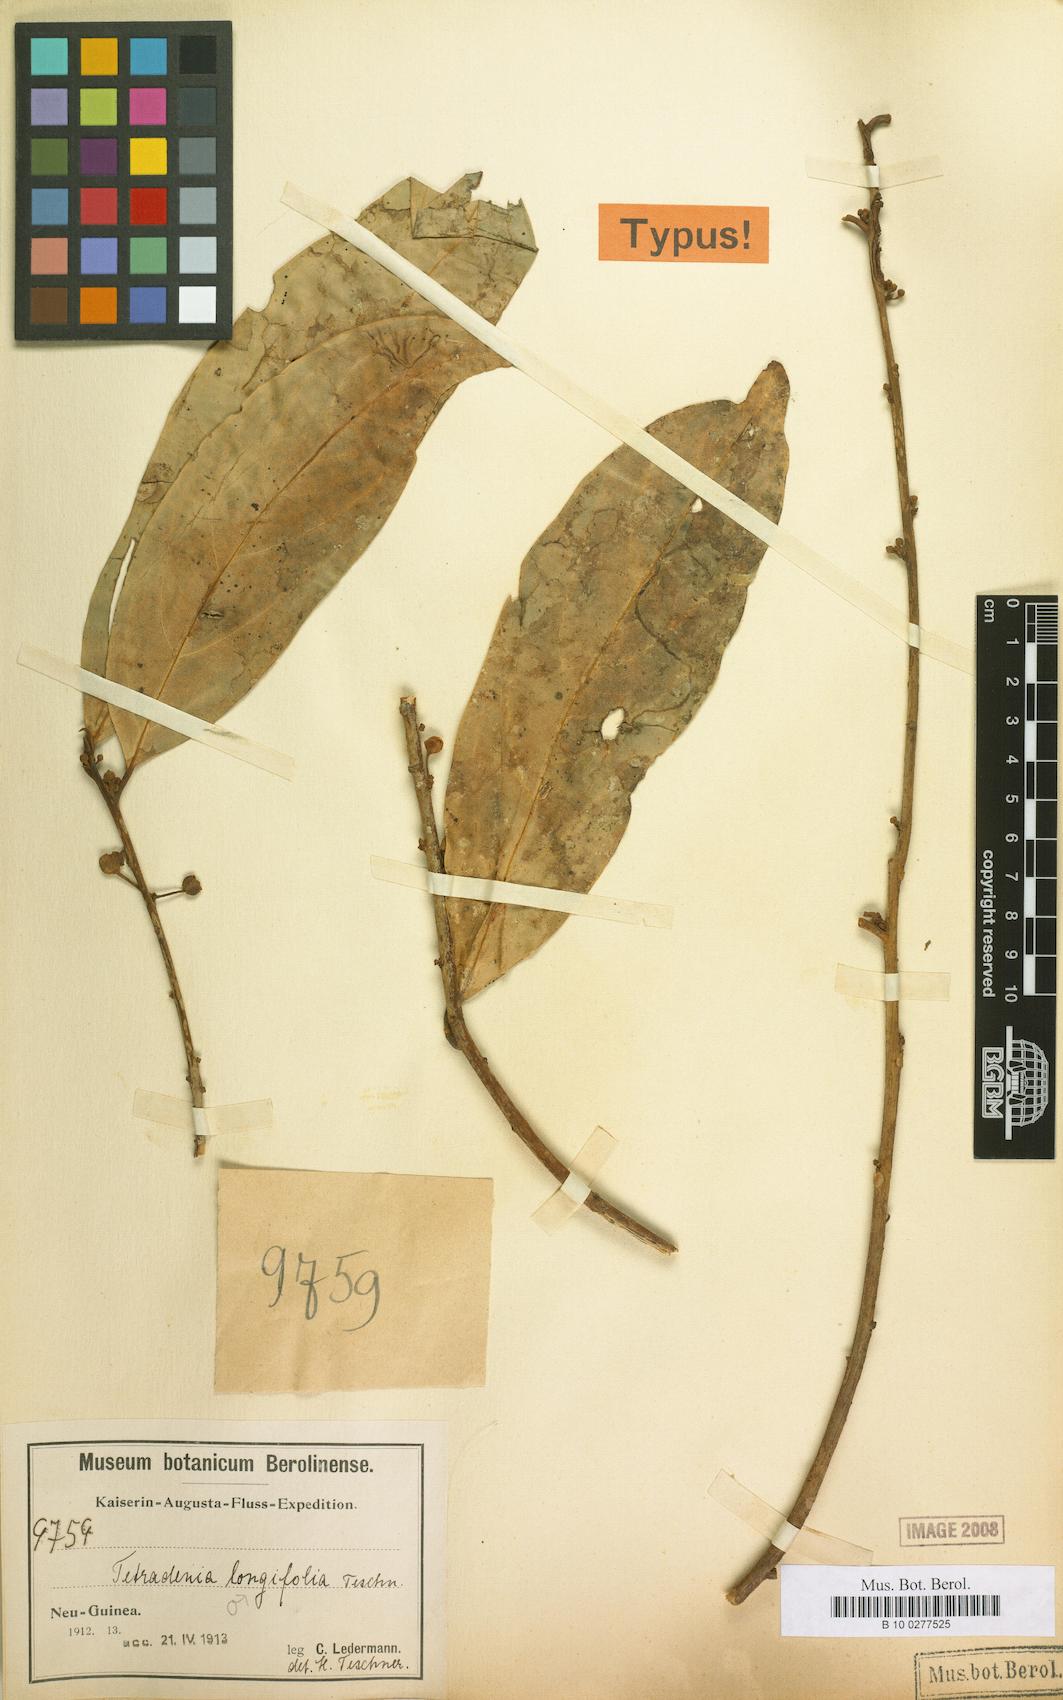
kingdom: Plantae
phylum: Tracheophyta
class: Magnoliopsida
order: Laurales
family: Lauraceae
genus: Neolitsea
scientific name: Neolitsea longifolia
